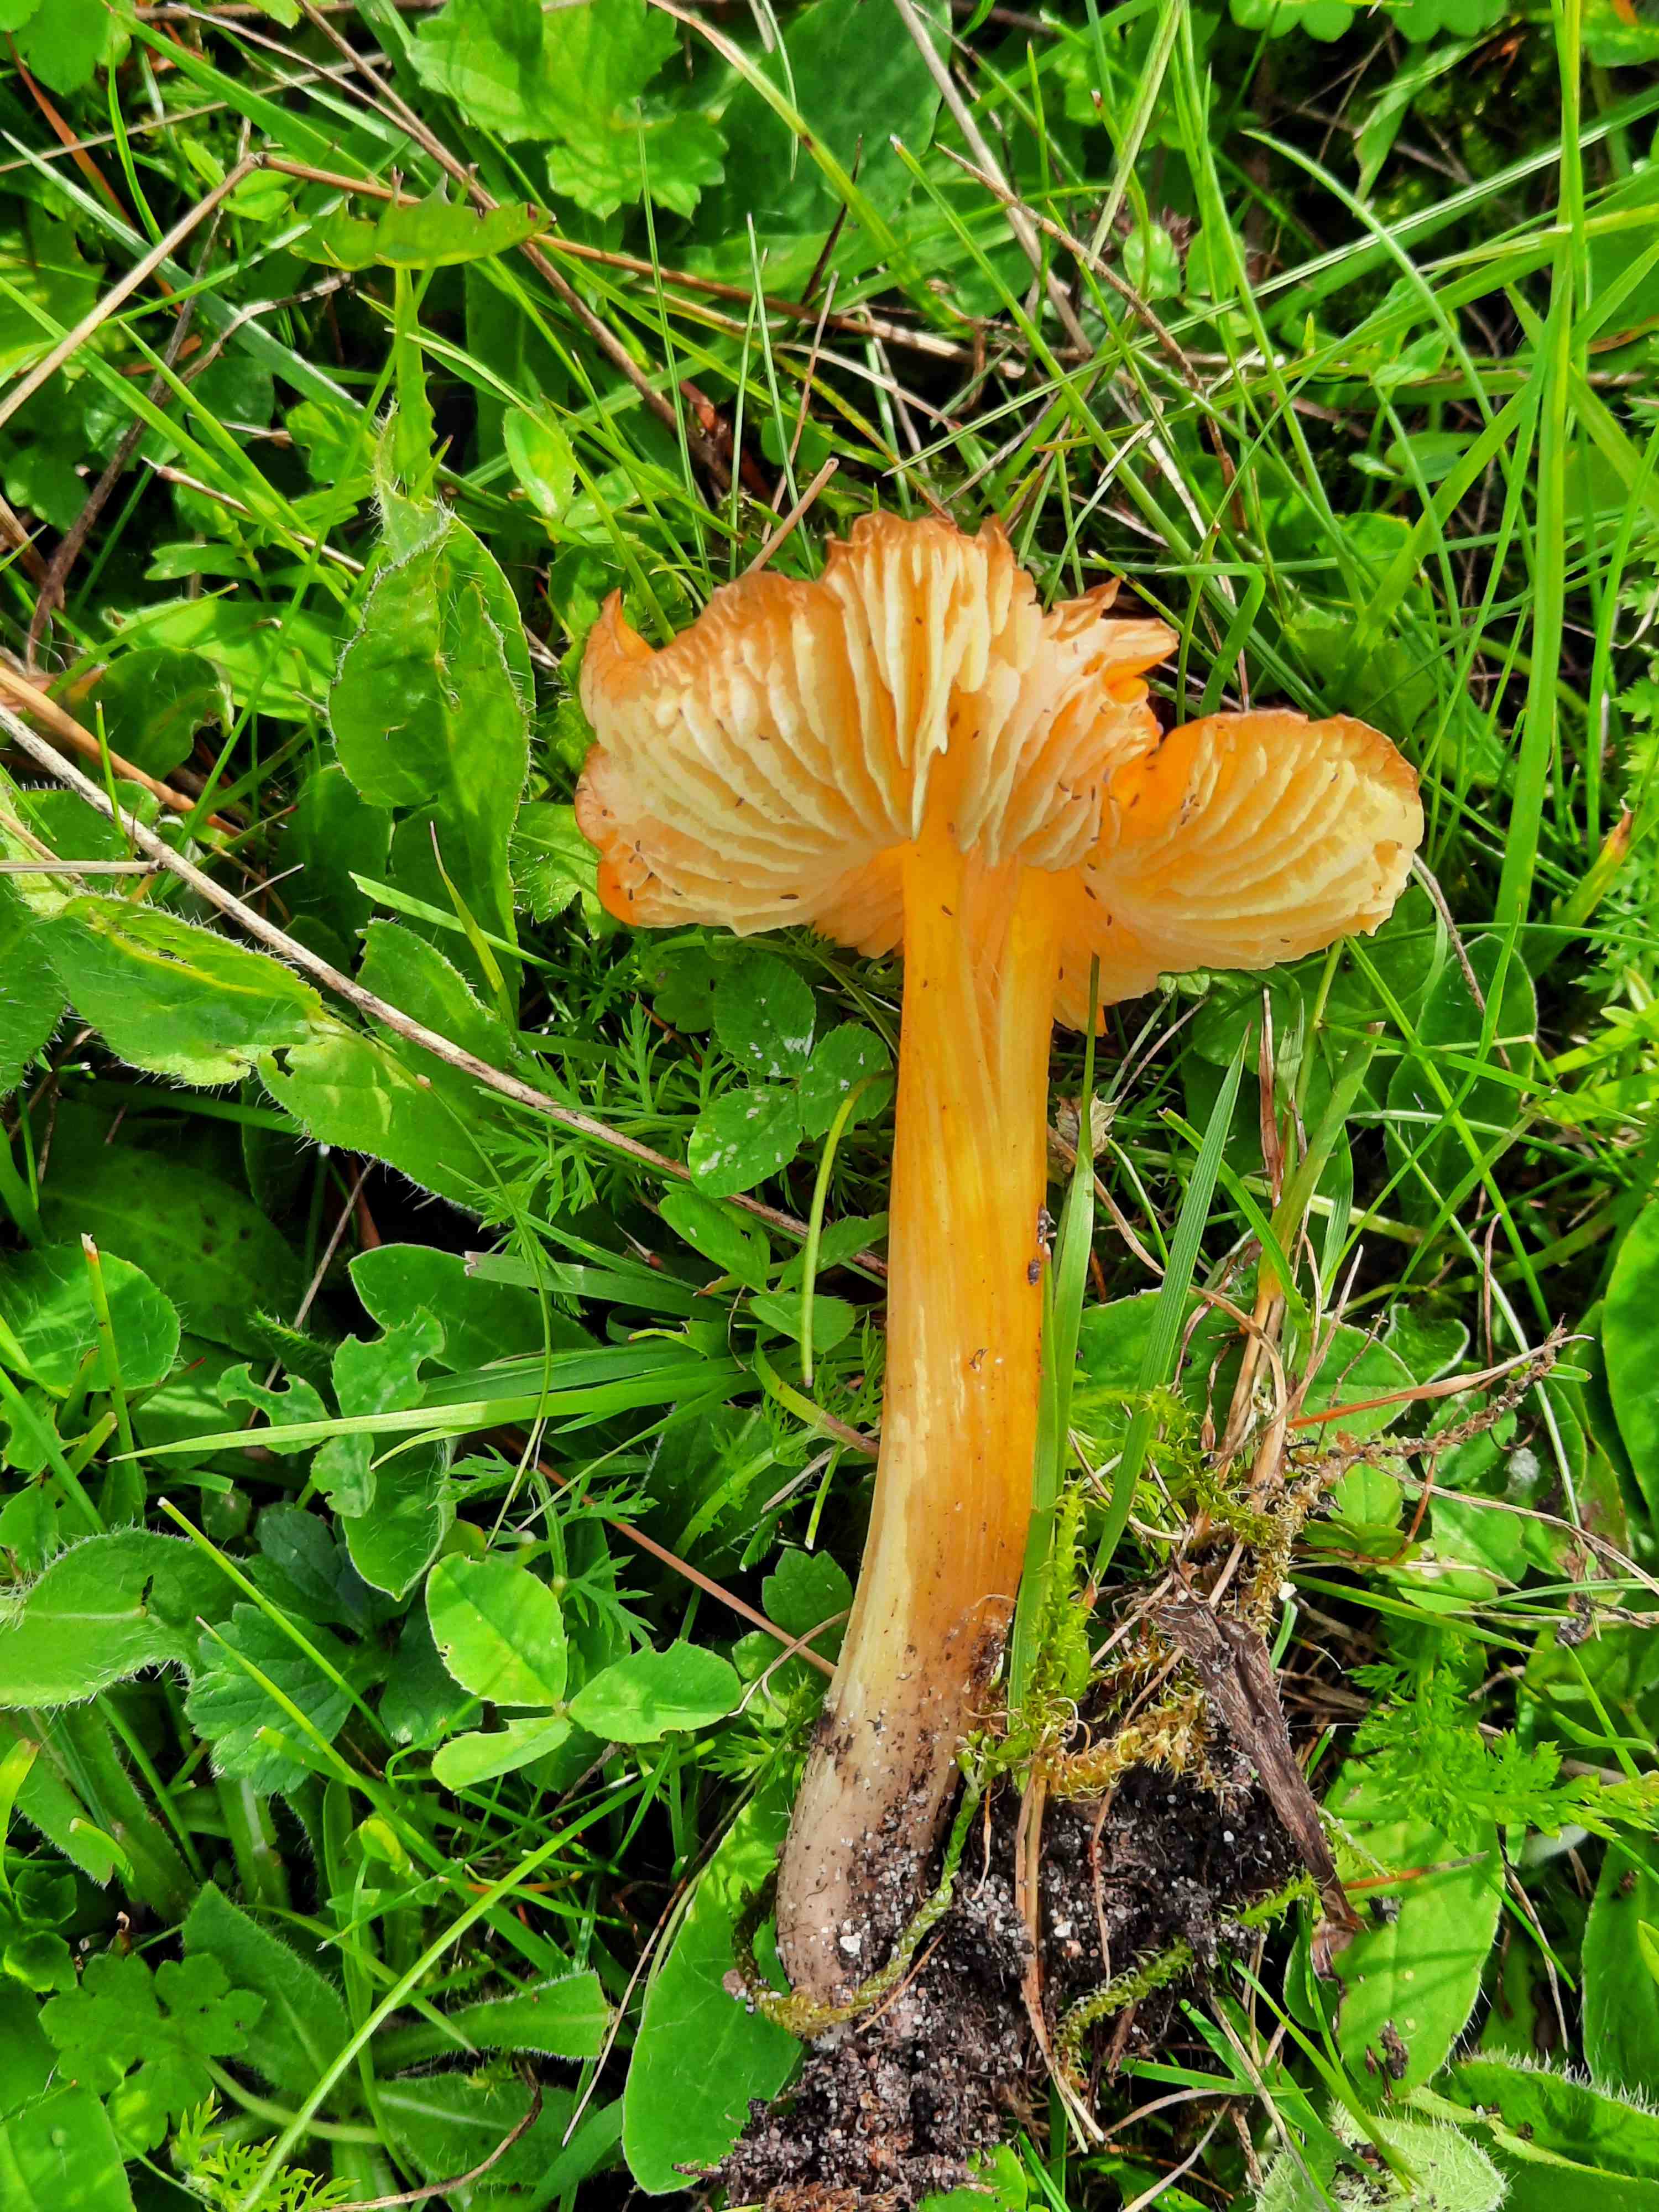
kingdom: Fungi
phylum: Basidiomycota
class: Agaricomycetes
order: Agaricales
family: Hygrophoraceae
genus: Hygrocybe
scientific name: Hygrocybe
